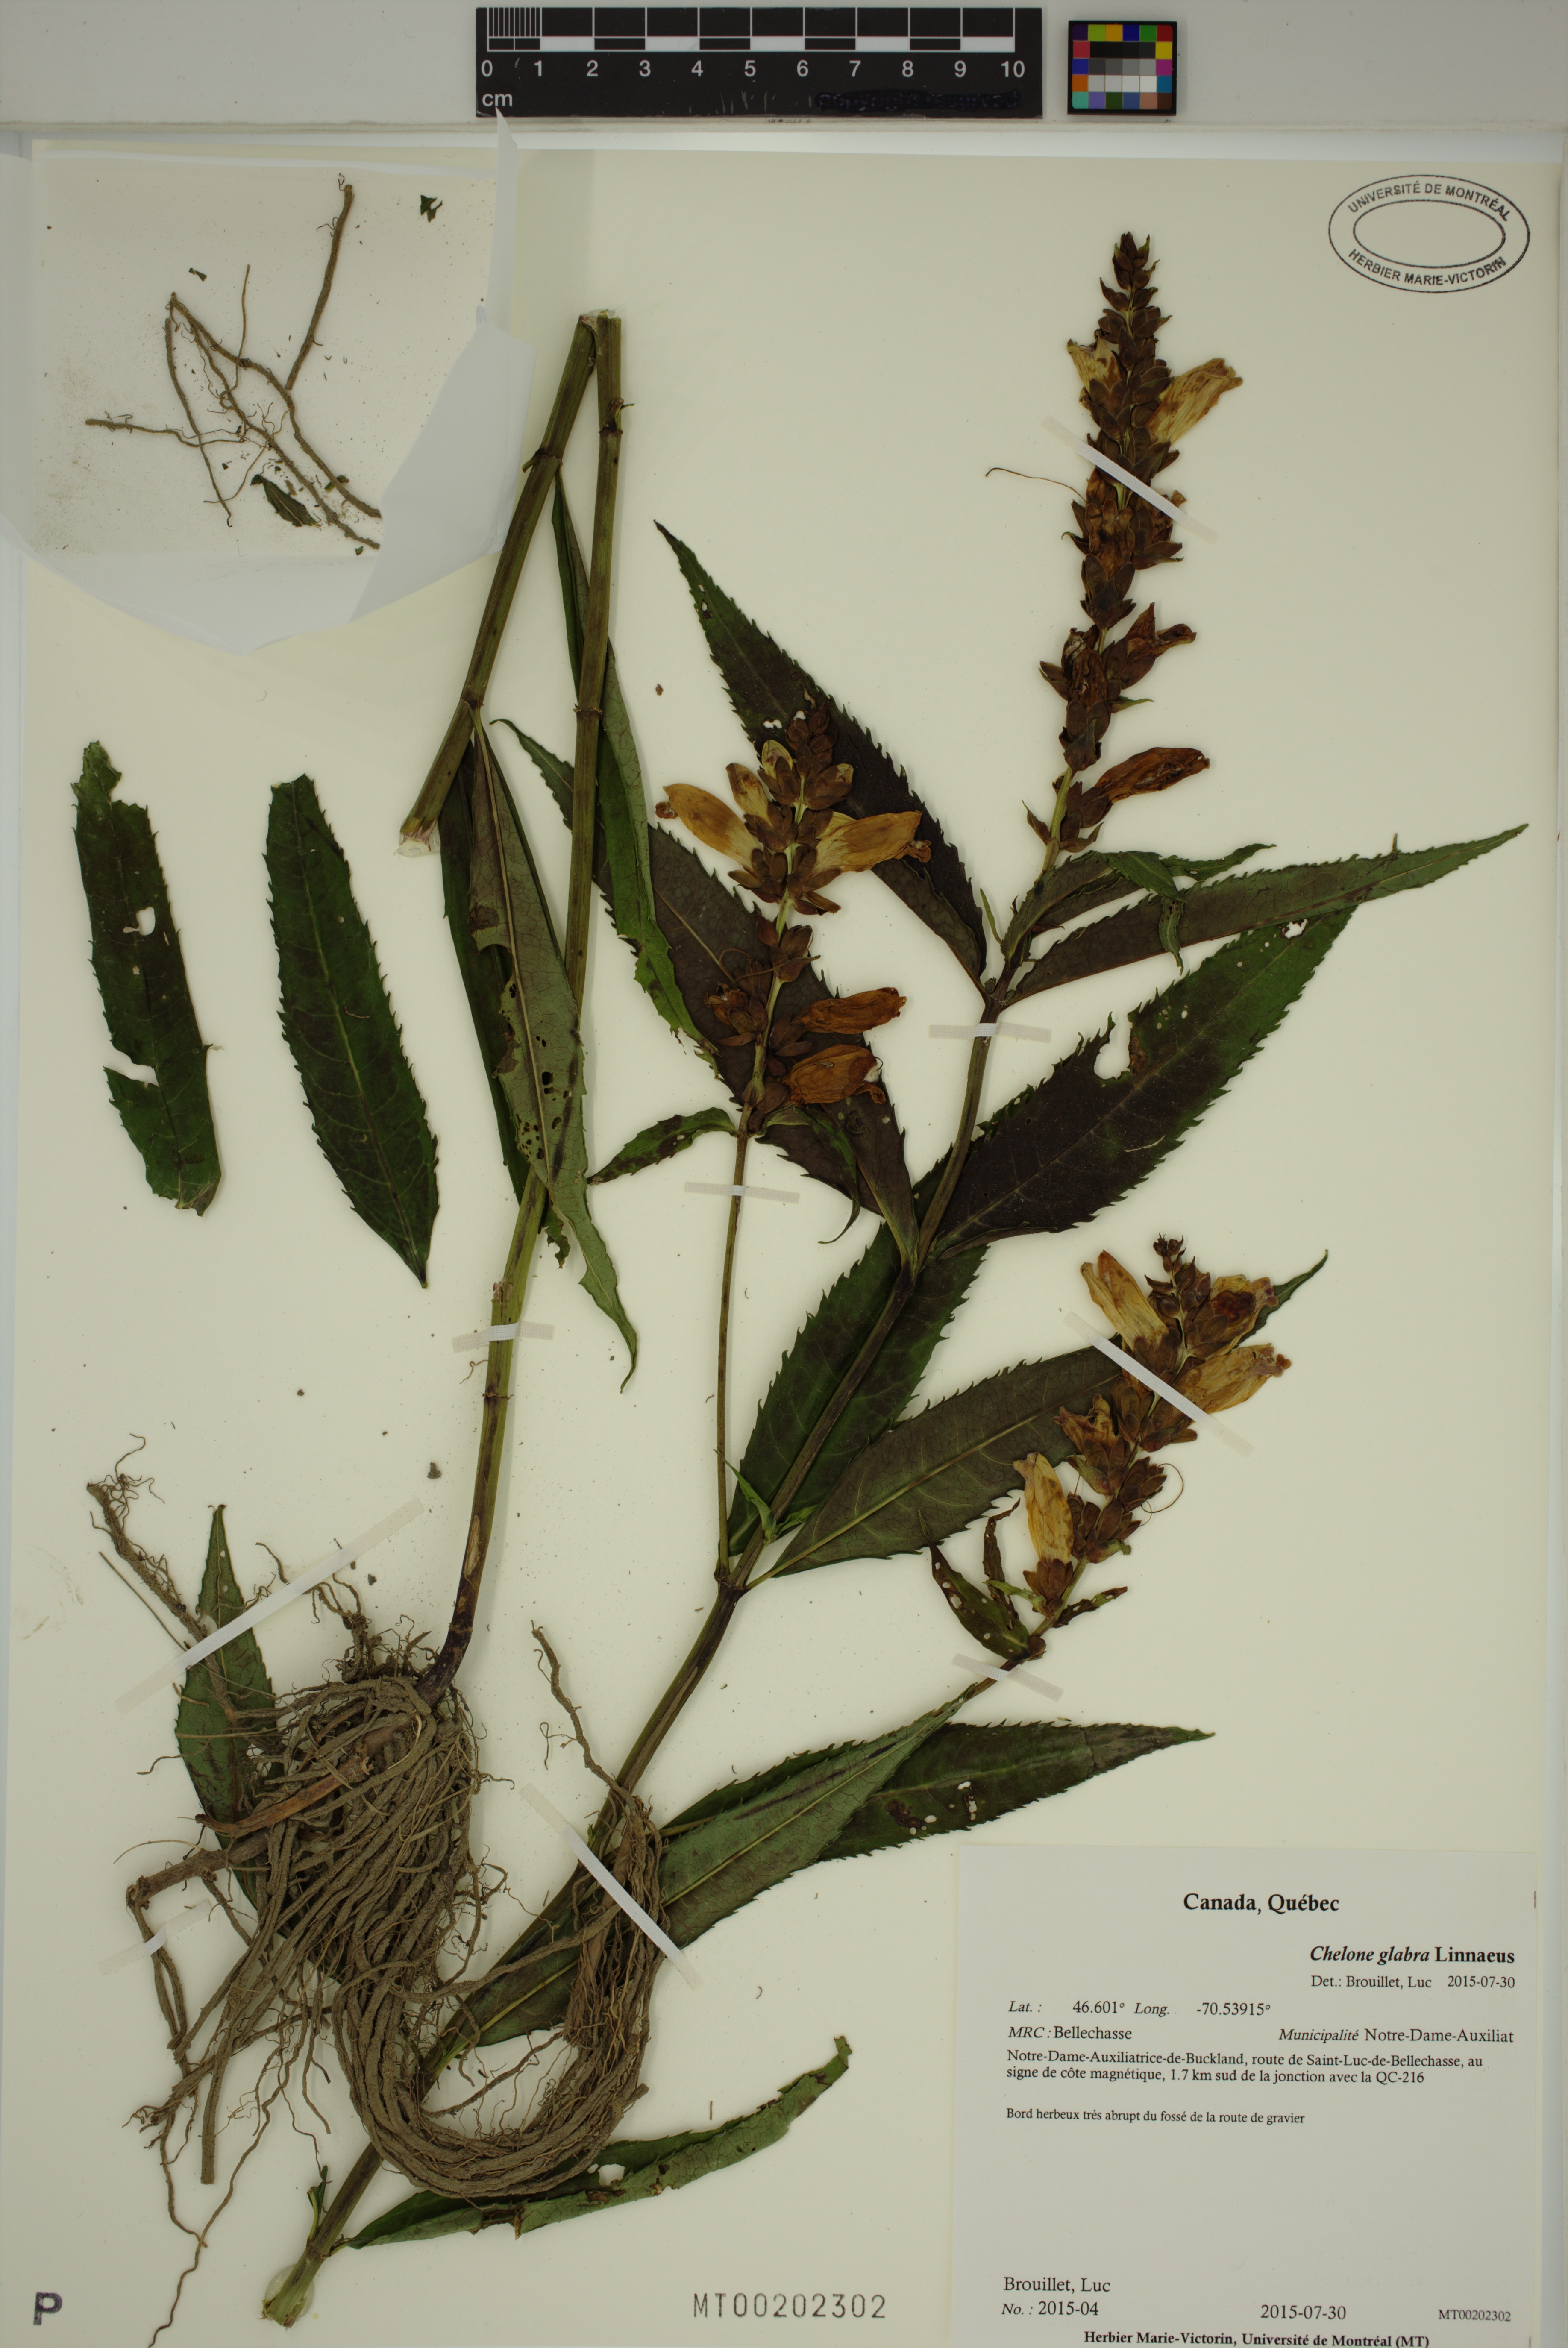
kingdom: Plantae
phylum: Tracheophyta
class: Magnoliopsida
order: Lamiales
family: Plantaginaceae
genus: Chelone
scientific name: Chelone glabra
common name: Snakehead
